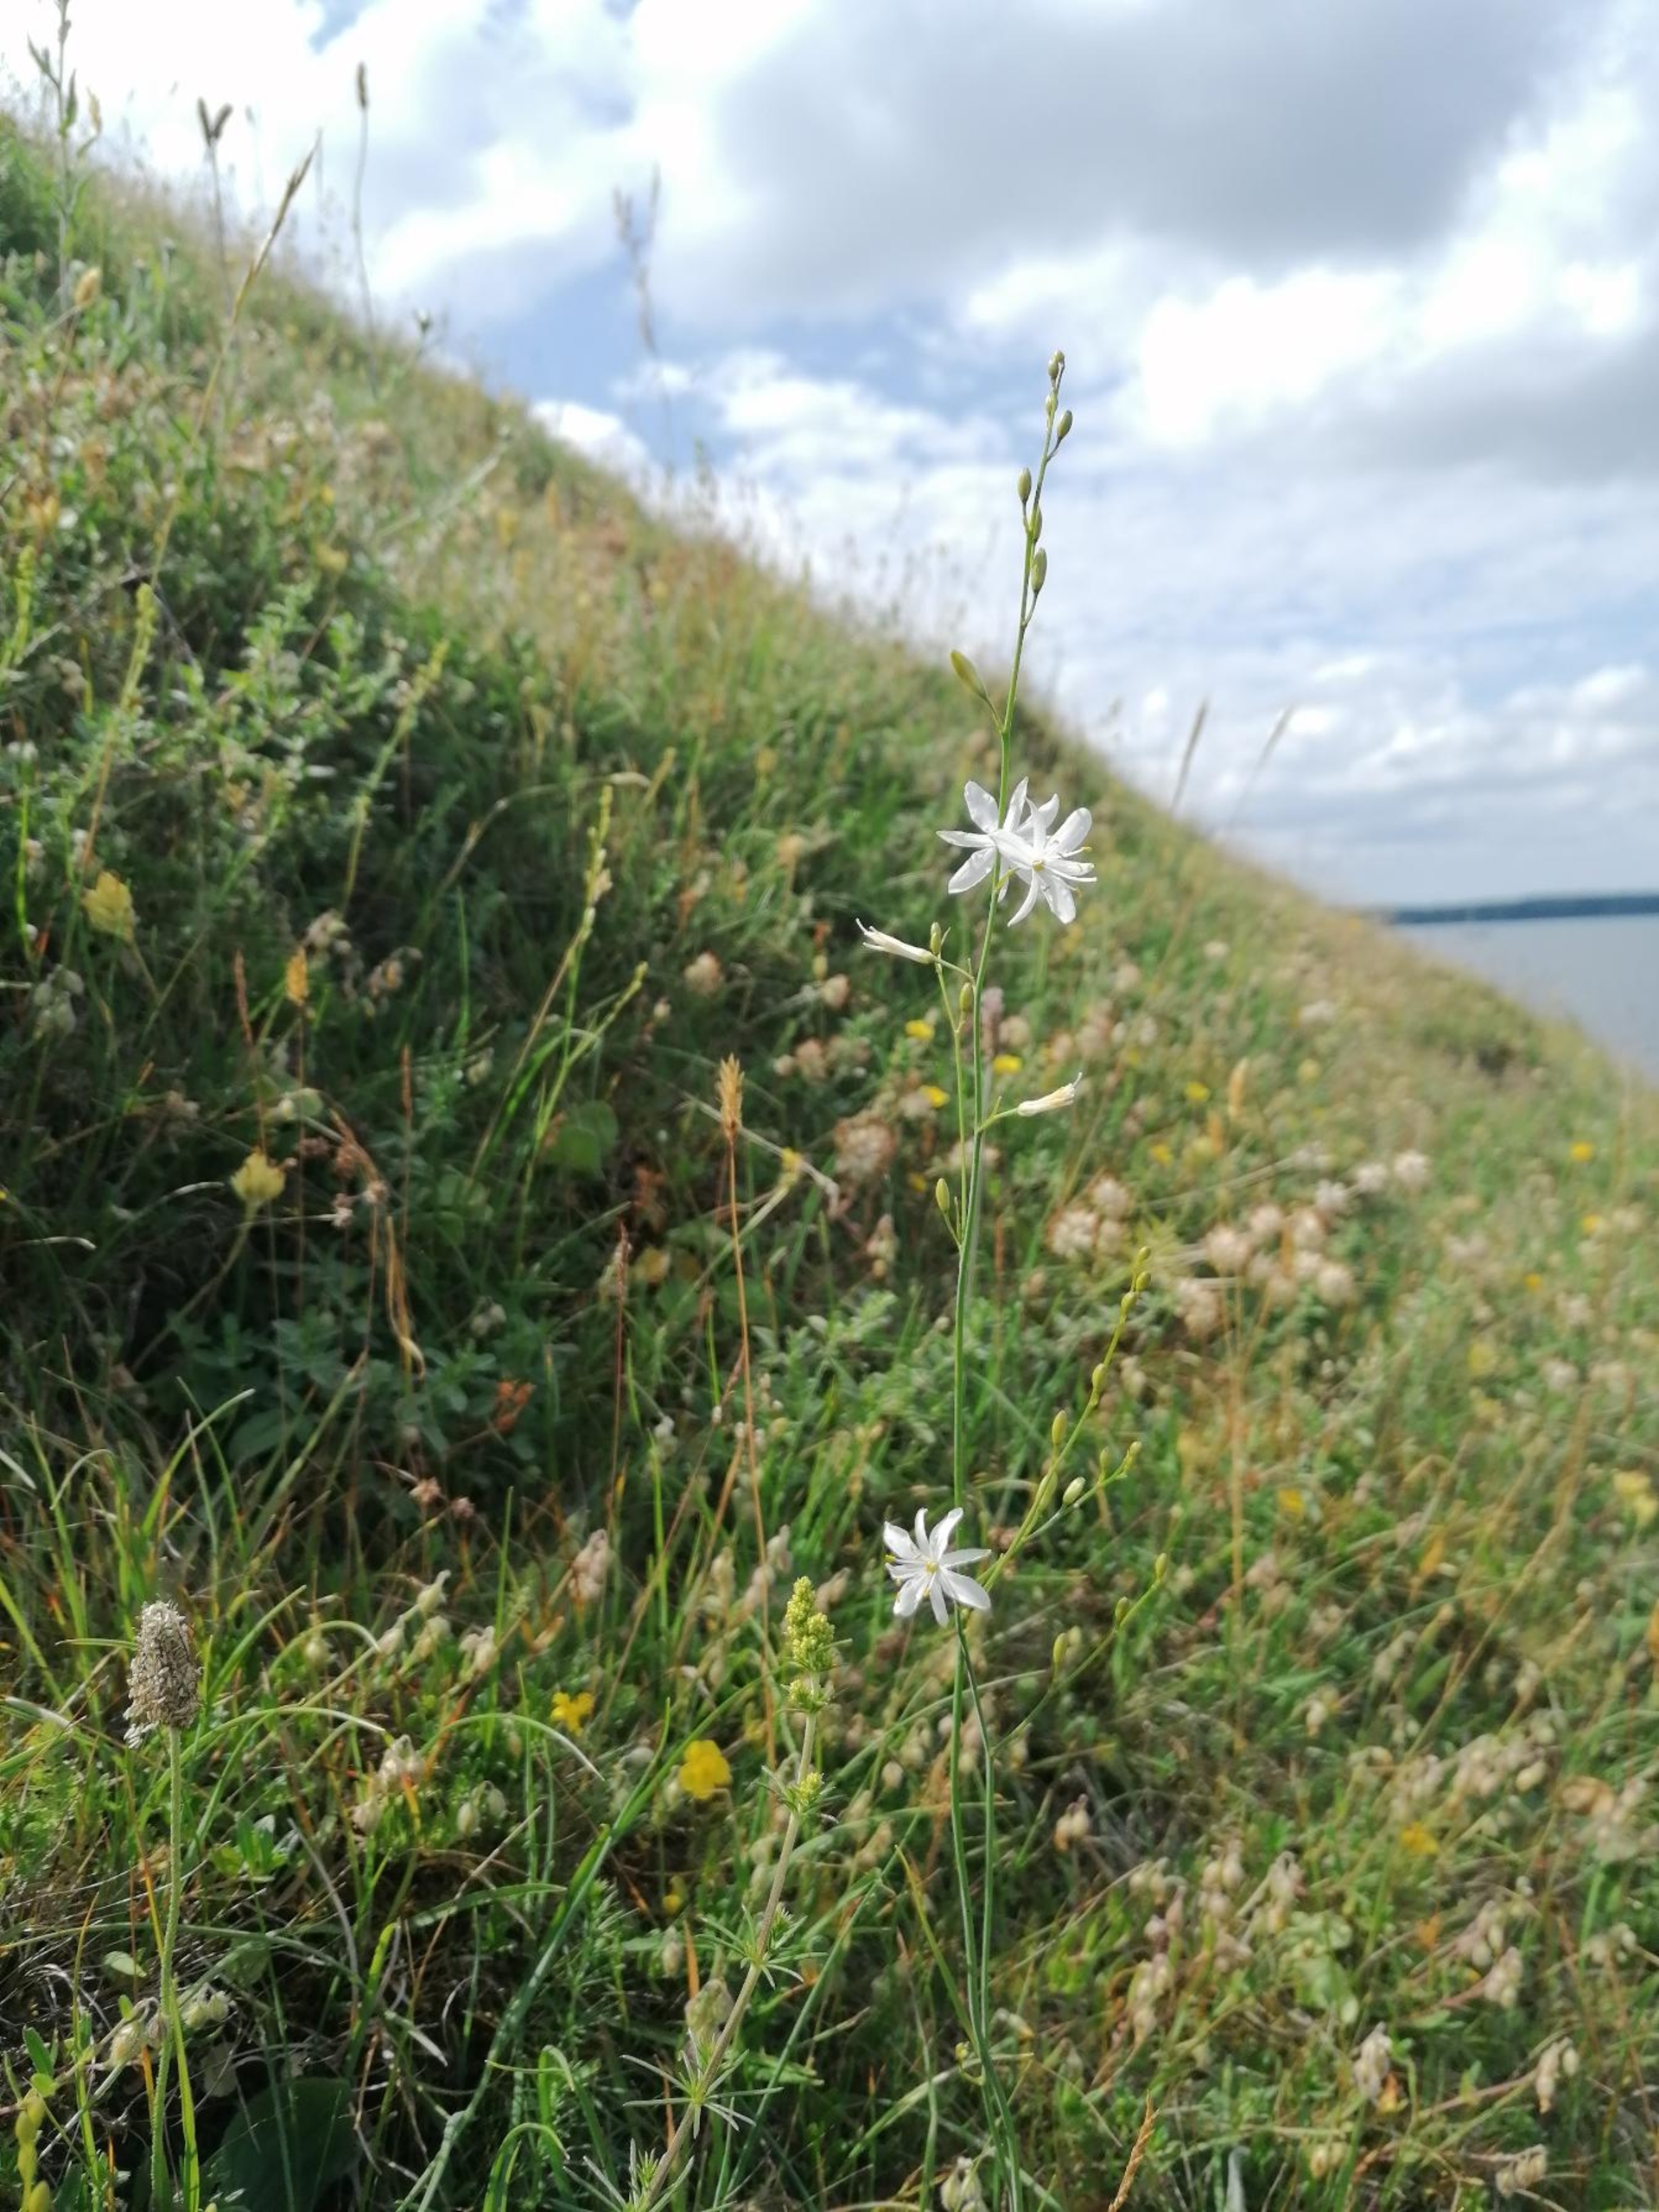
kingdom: Plantae
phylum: Tracheophyta
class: Liliopsida
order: Asparagales
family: Asparagaceae
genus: Anthericum
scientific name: Anthericum ramosum
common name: Grenet edderkopurt
